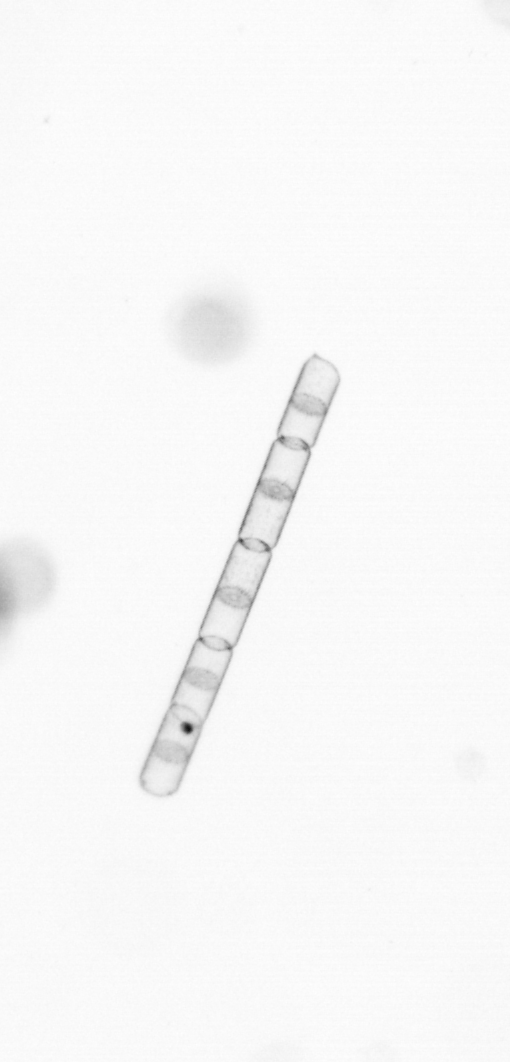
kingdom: Chromista
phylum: Ochrophyta
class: Bacillariophyceae
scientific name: Bacillariophyceae
